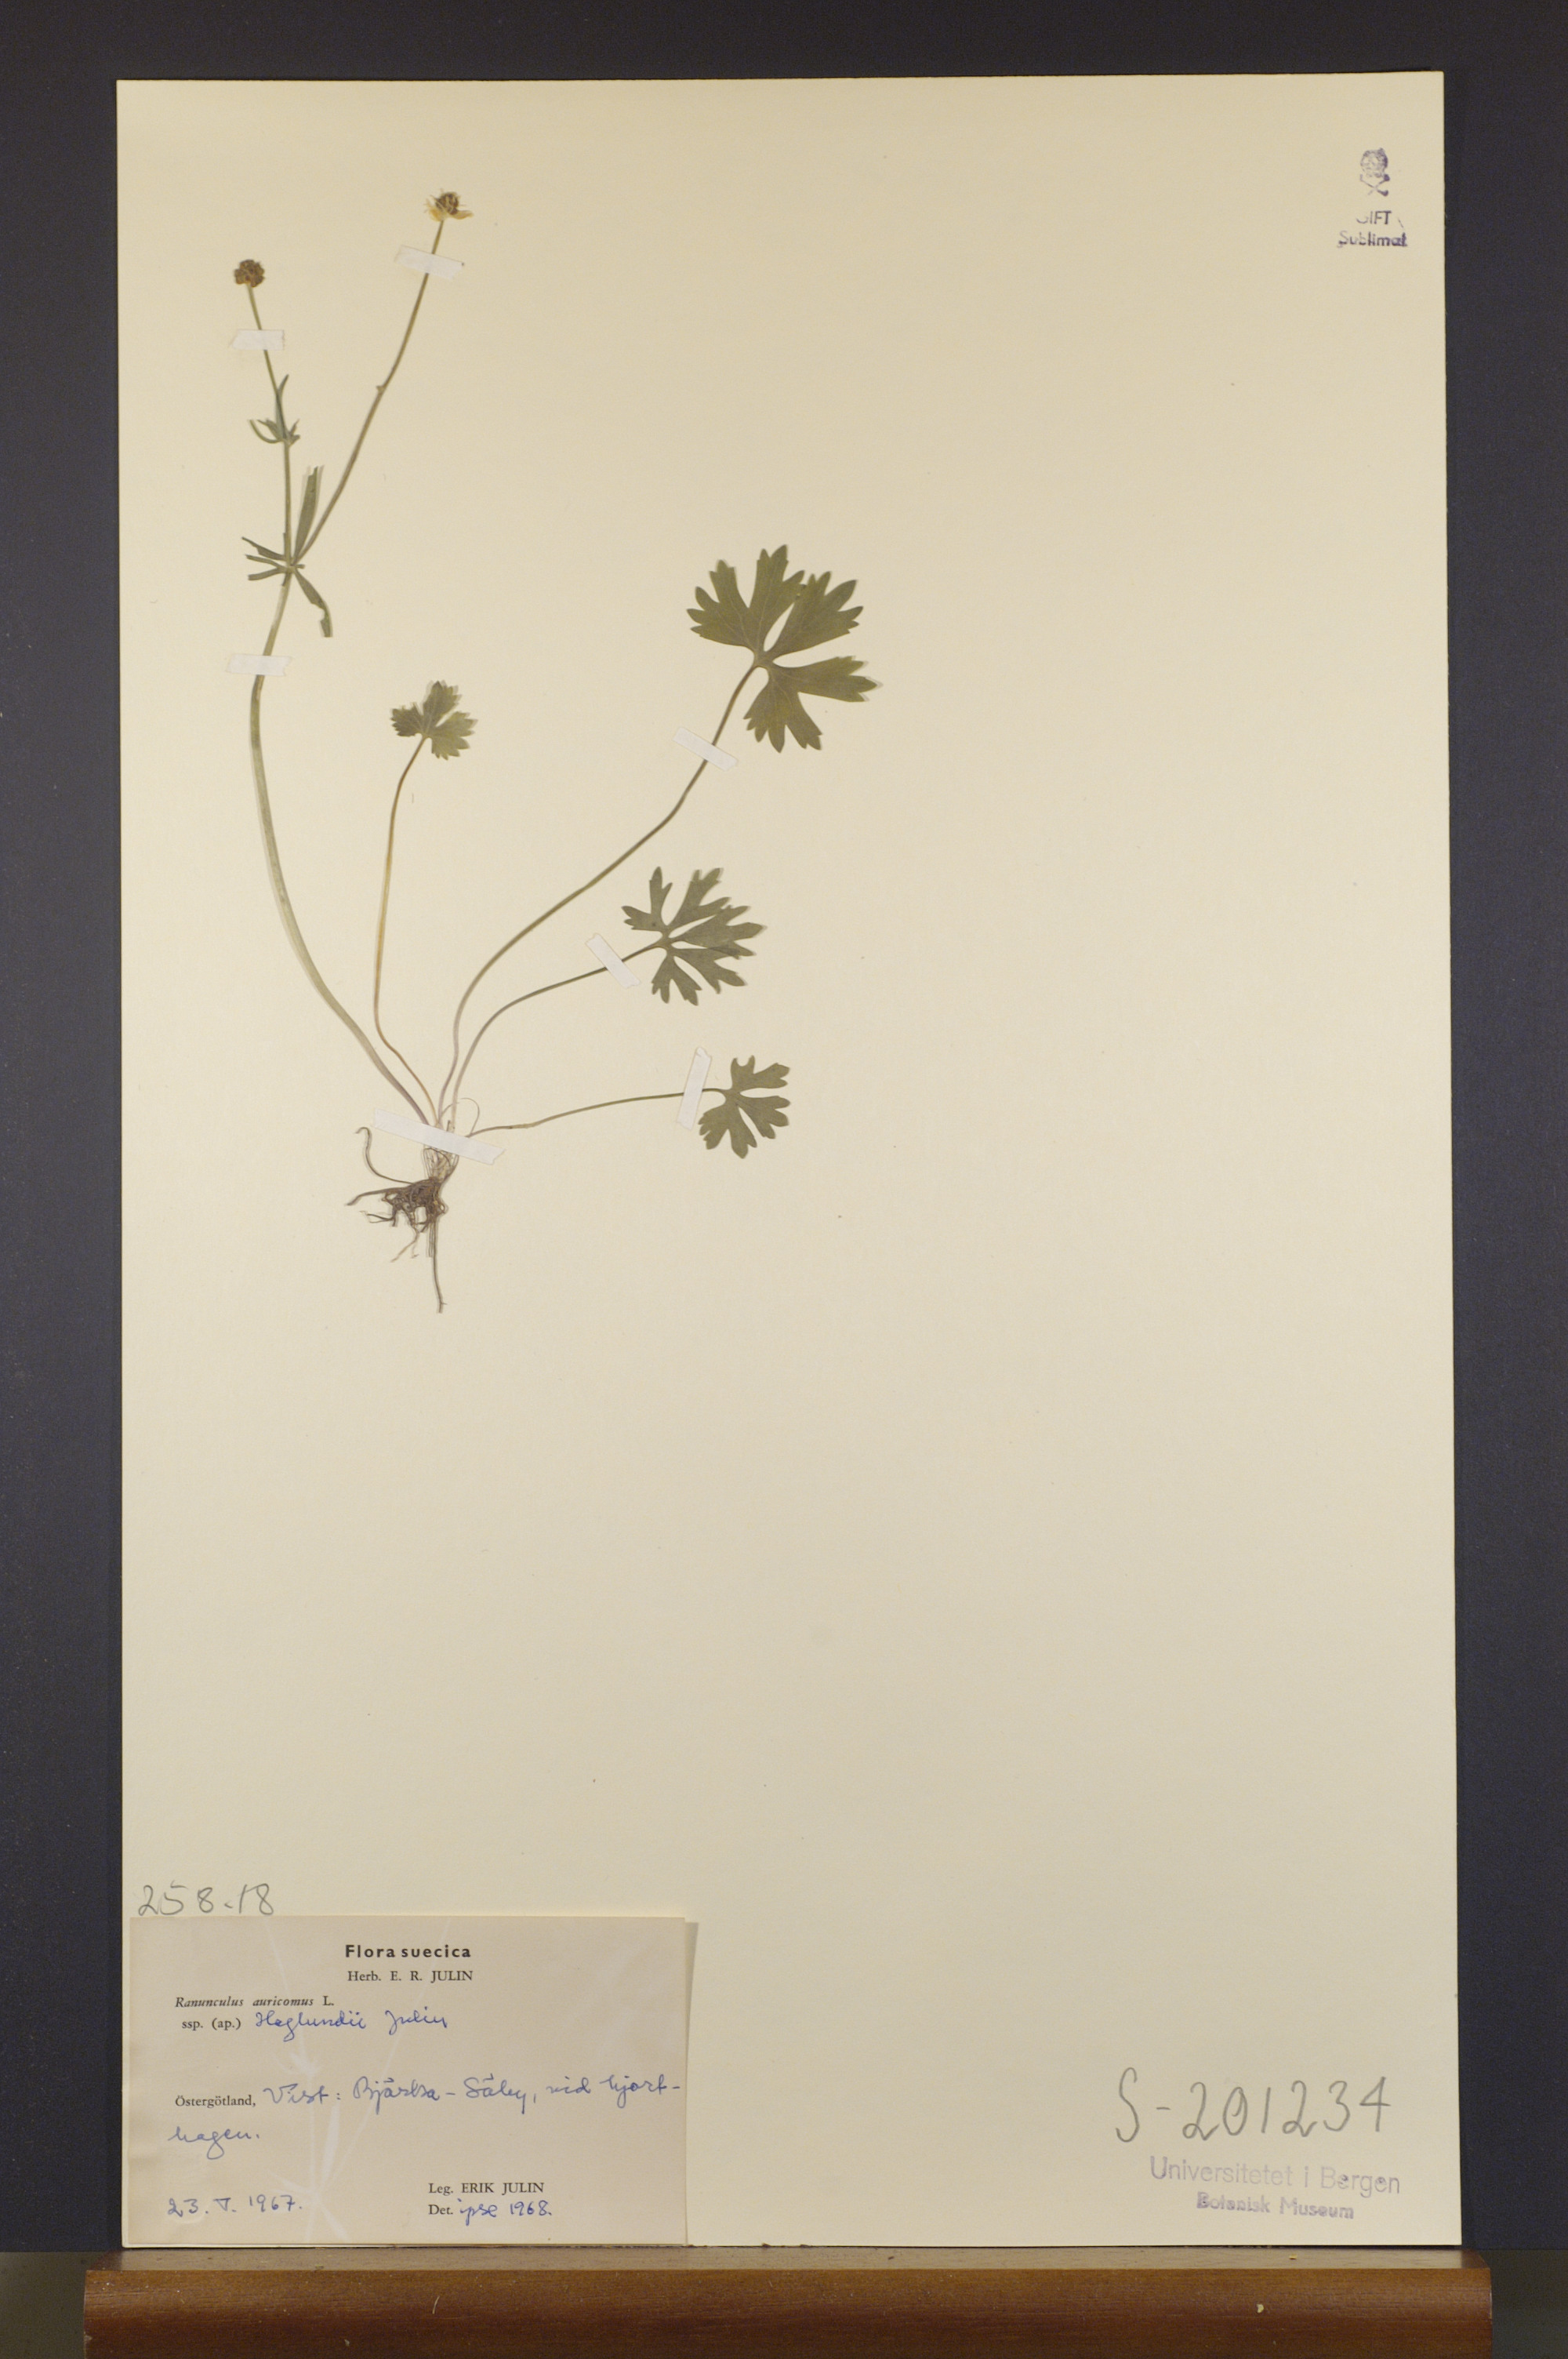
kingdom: Plantae
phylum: Tracheophyta
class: Magnoliopsida
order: Ranunculales
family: Ranunculaceae
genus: Ranunculus
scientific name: Ranunculus haglundii
